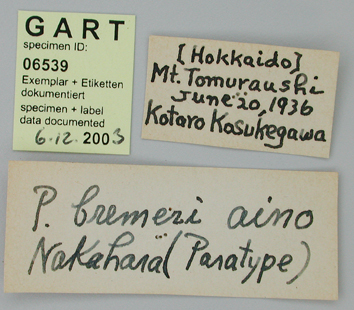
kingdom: Animalia
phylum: Arthropoda
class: Insecta
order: Lepidoptera
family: Papilionidae
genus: Parnassius
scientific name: Parnassius bremeri
